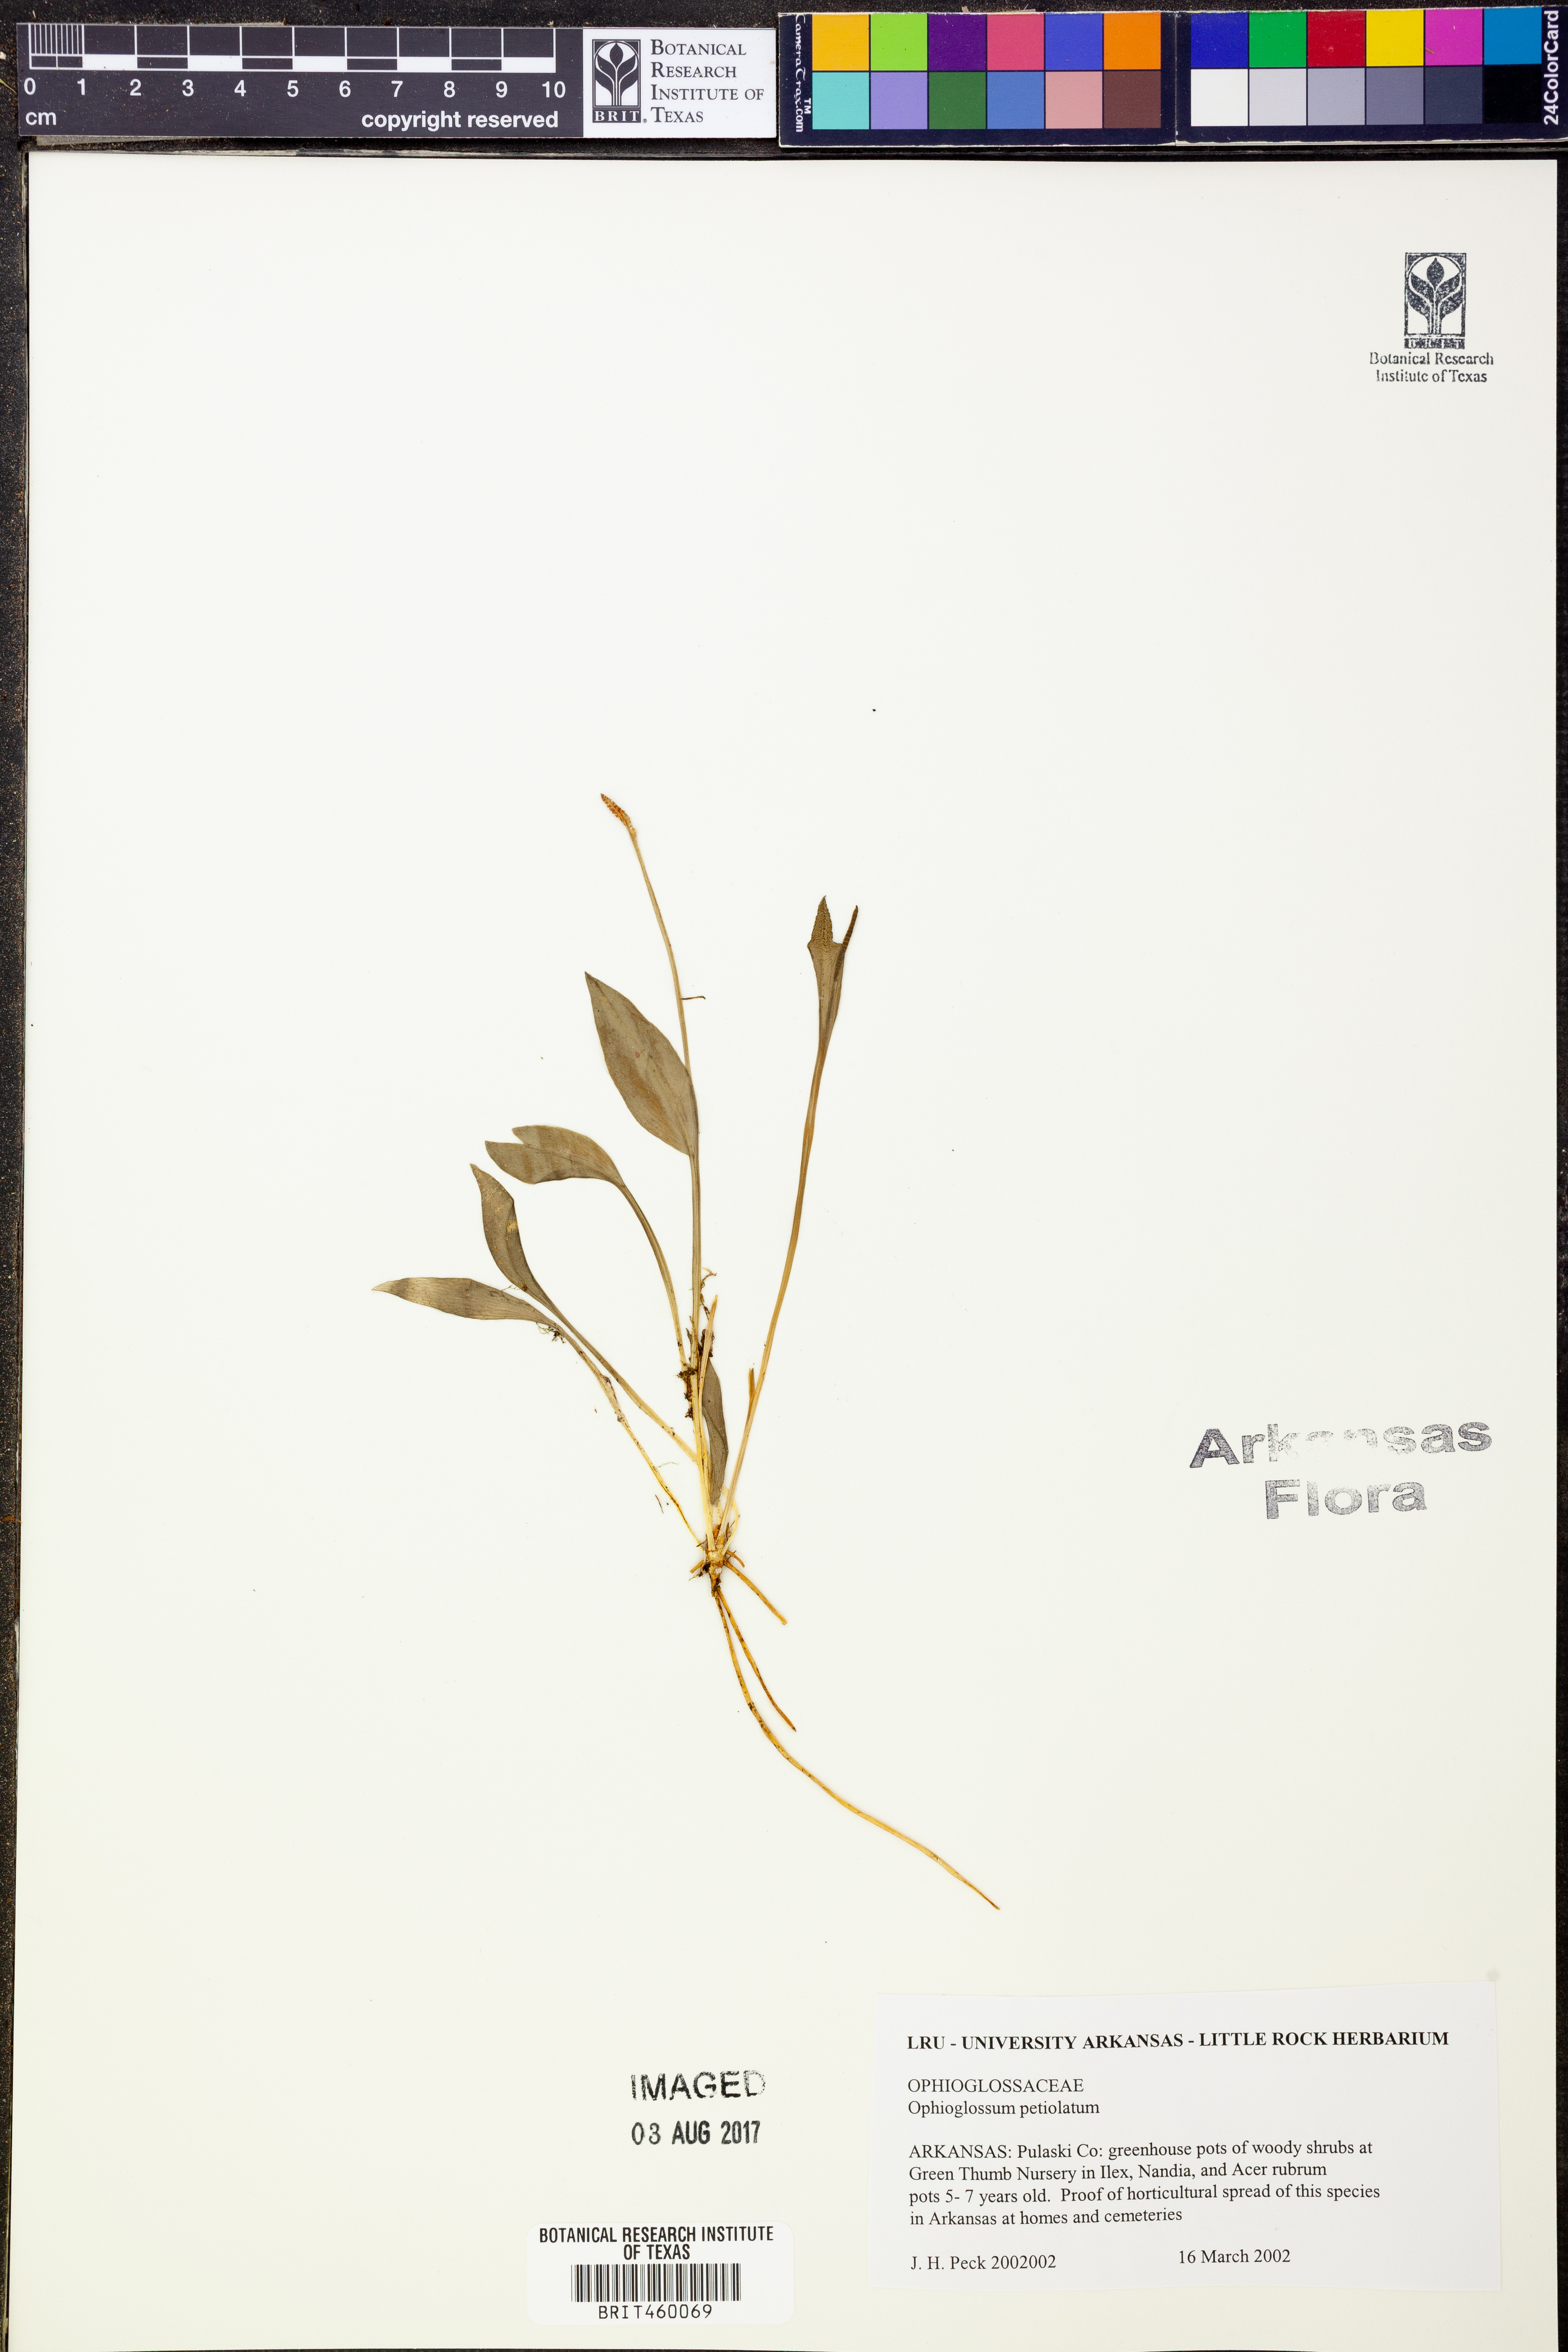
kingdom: Plantae
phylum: Tracheophyta
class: Polypodiopsida
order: Ophioglossales
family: Ophioglossaceae
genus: Ophioglossum
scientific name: Ophioglossum petiolatum
